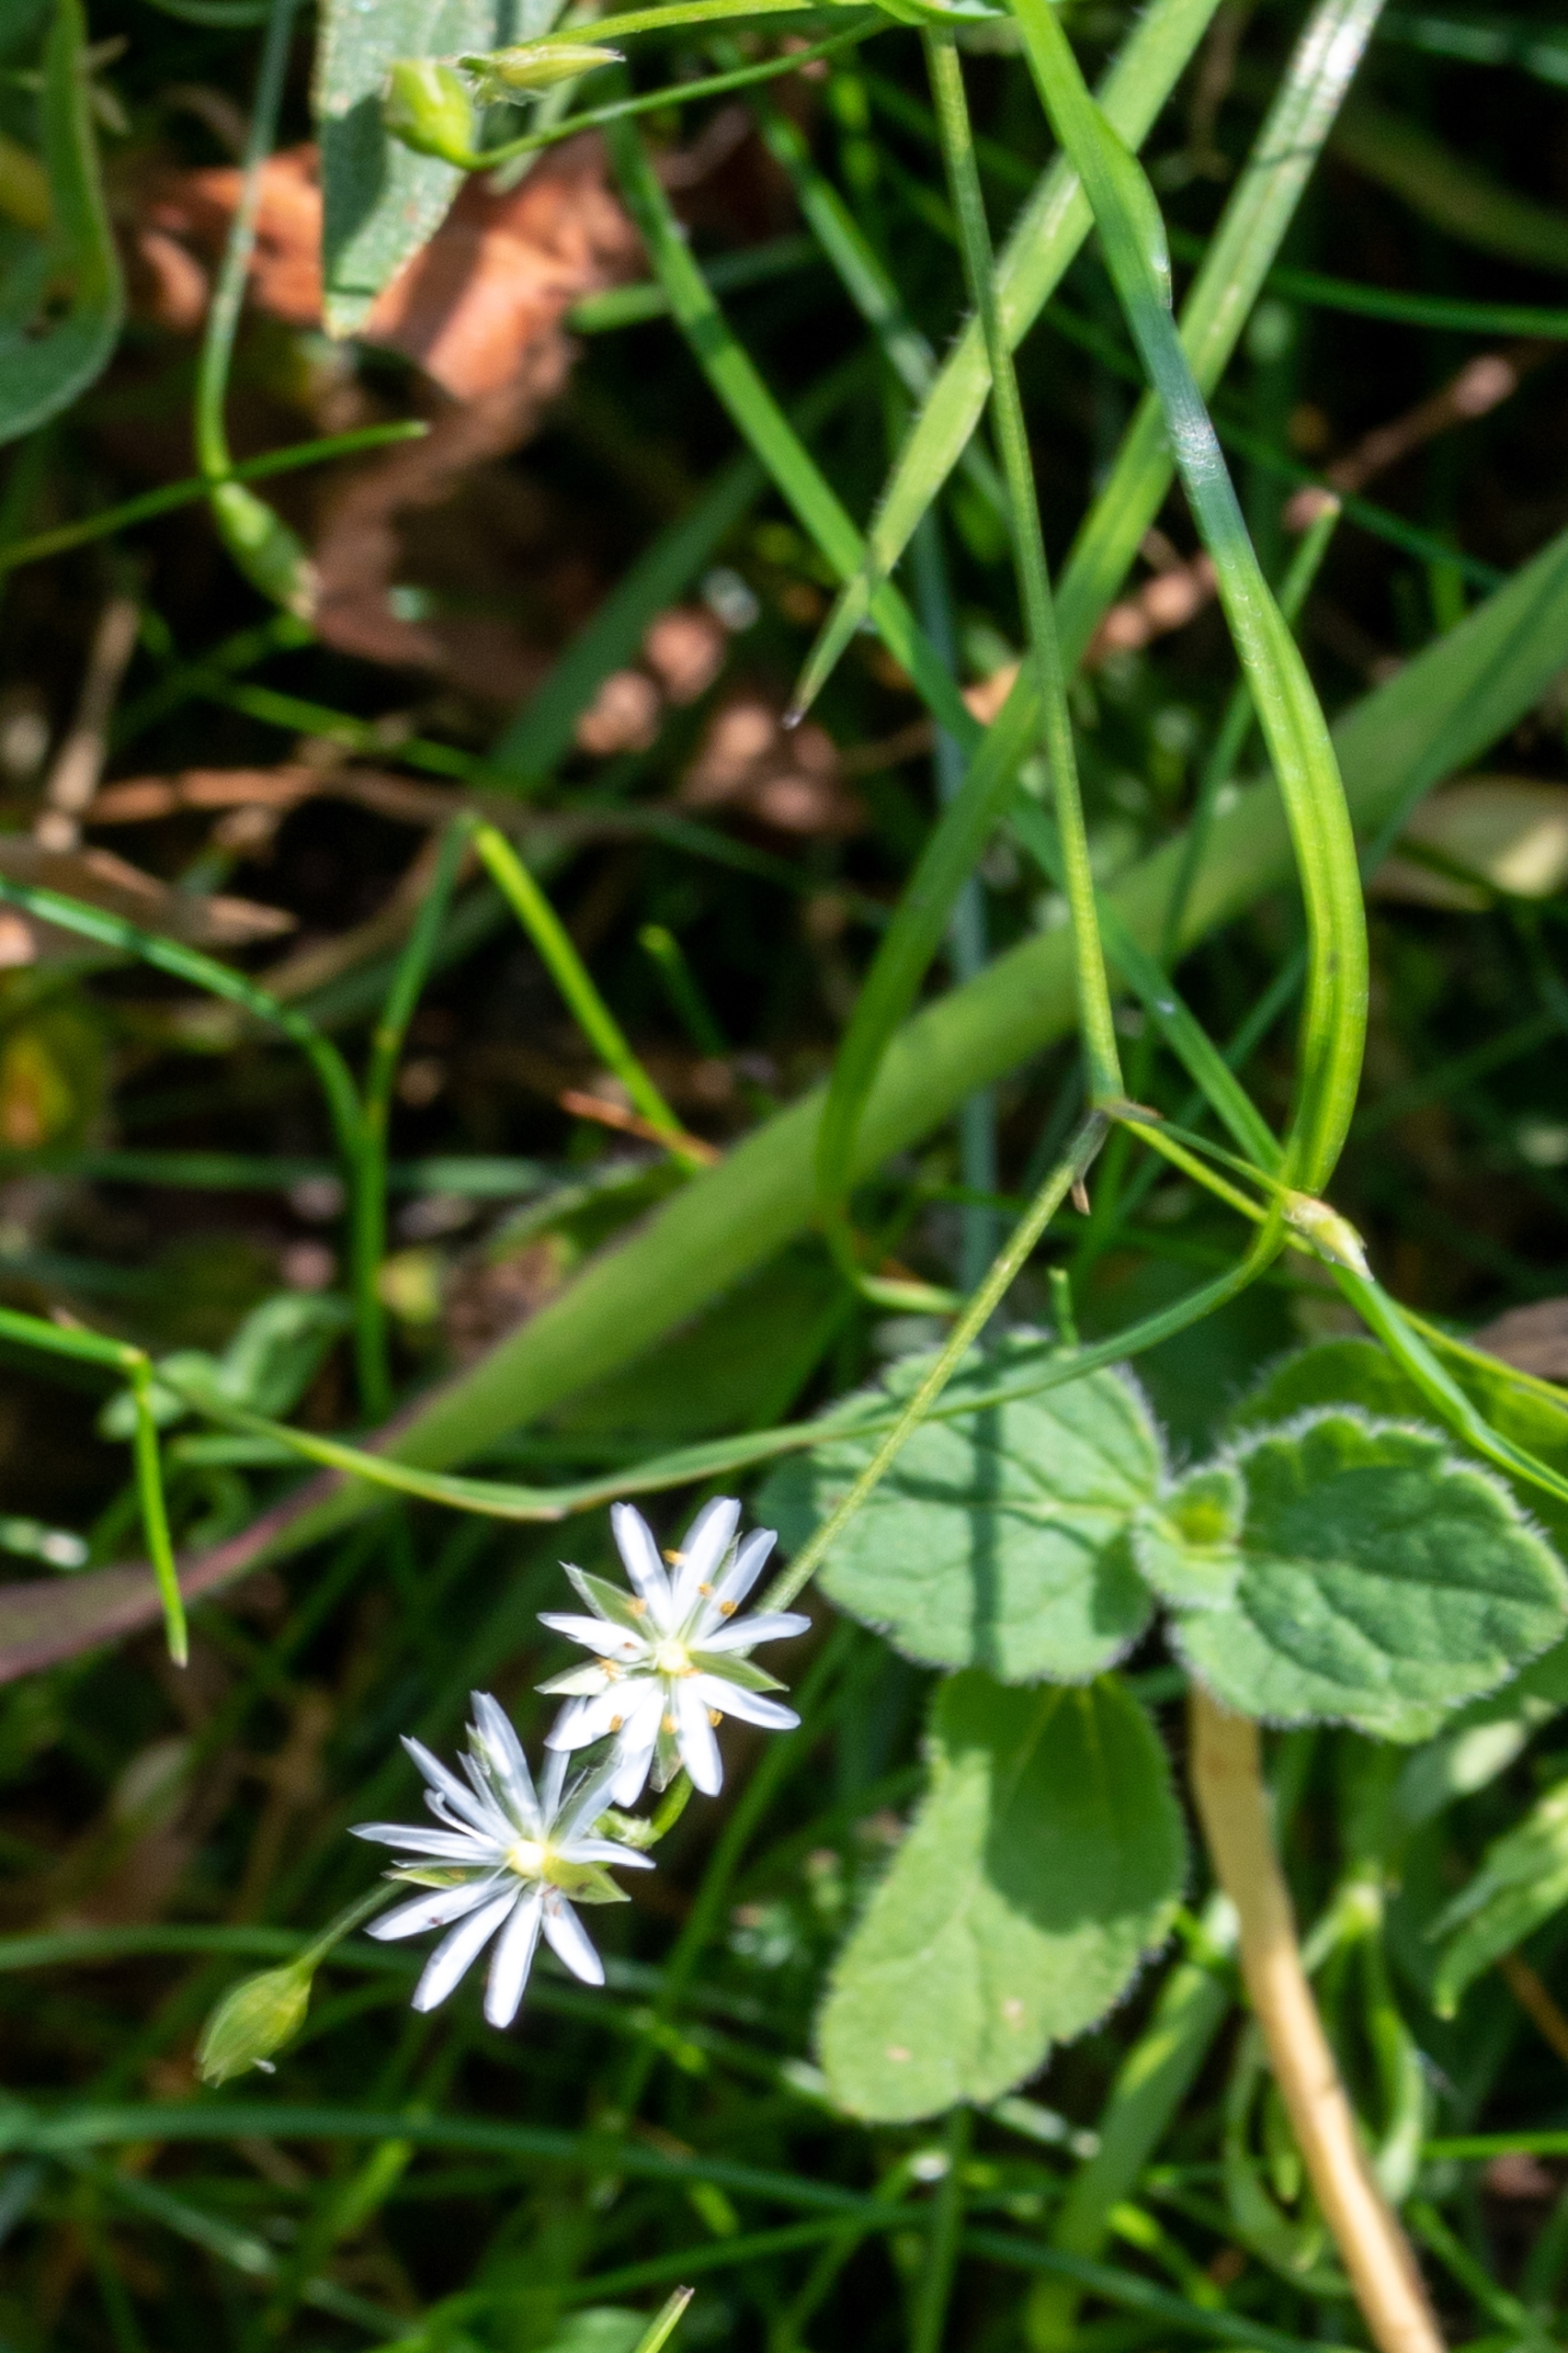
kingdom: Plantae
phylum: Tracheophyta
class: Magnoliopsida
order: Caryophyllales
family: Caryophyllaceae
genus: Stellaria
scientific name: Stellaria graminea
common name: Græsbladet fladstjerne
